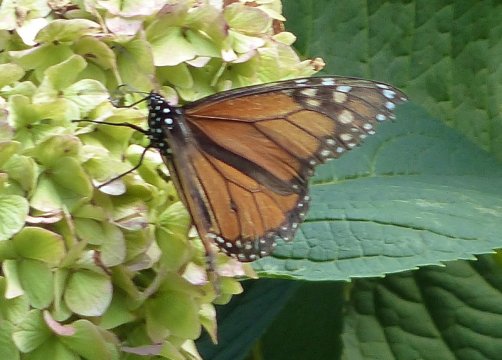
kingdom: Animalia
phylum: Arthropoda
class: Insecta
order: Lepidoptera
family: Nymphalidae
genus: Danaus
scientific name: Danaus plexippus
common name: Monarch
